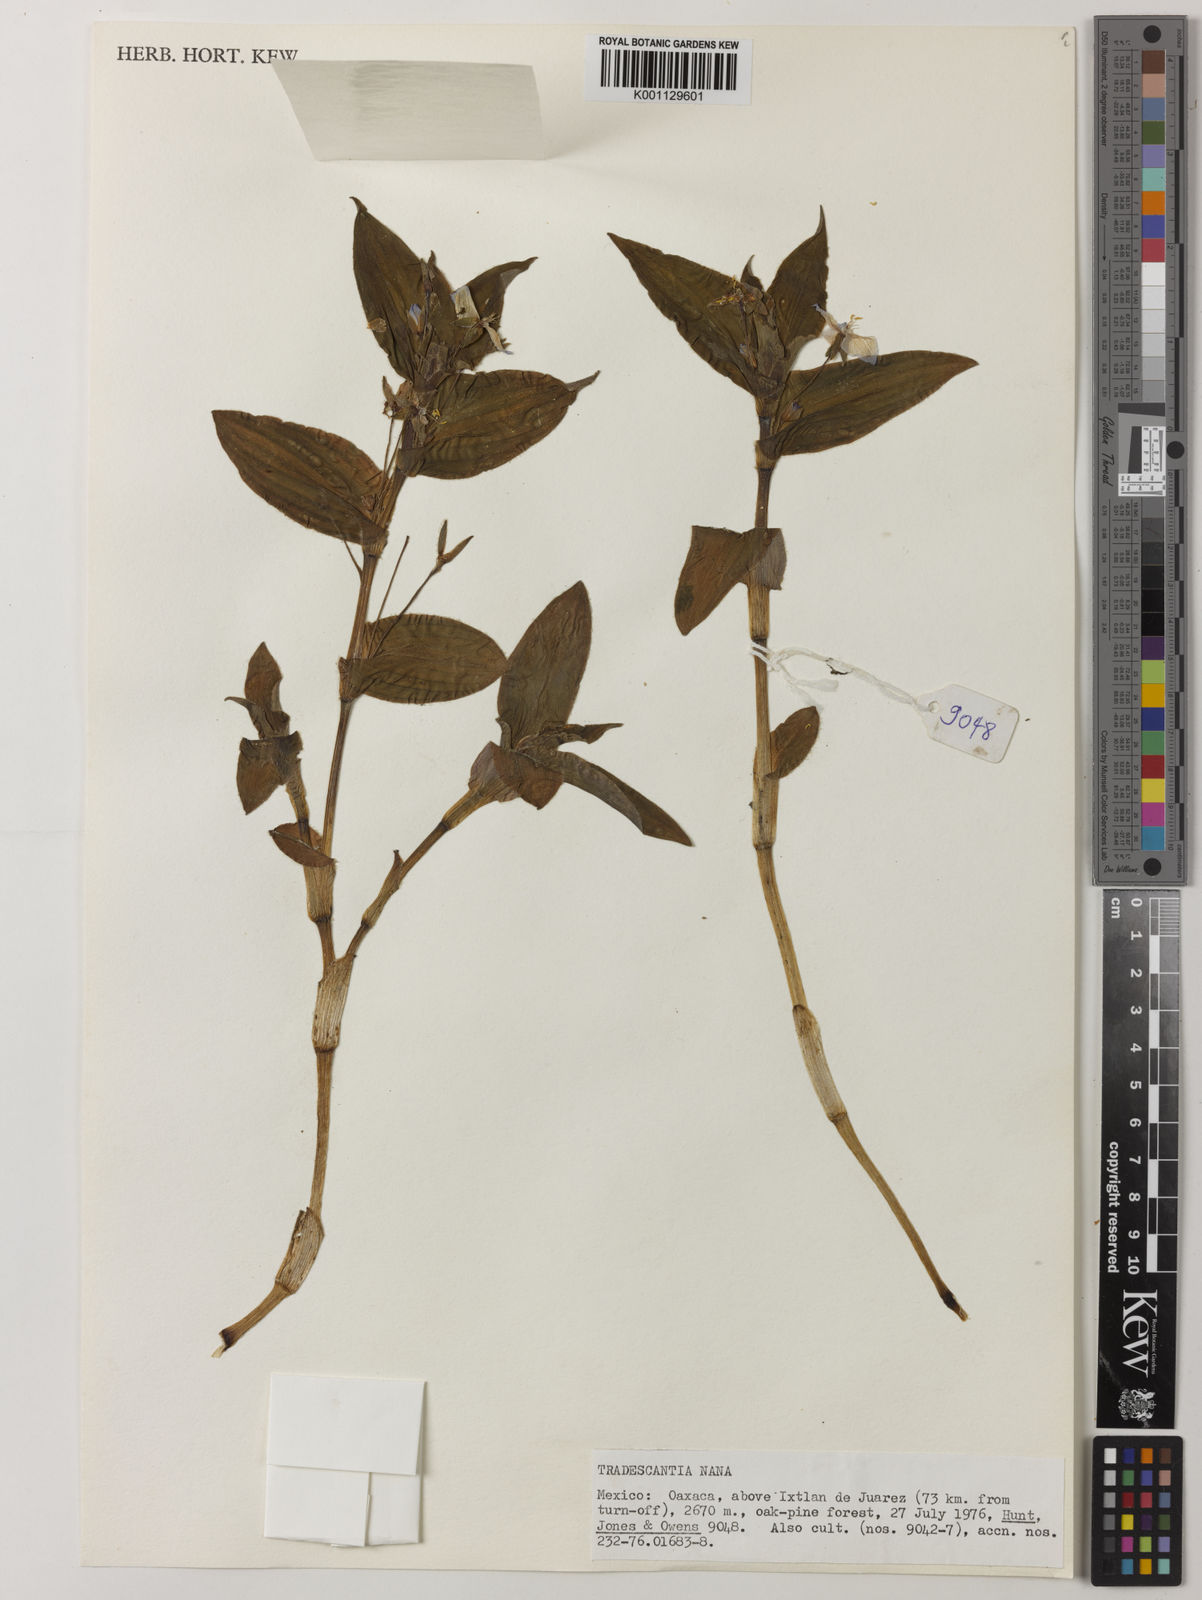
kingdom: Plantae
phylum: Tracheophyta
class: Liliopsida
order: Commelinales
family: Commelinaceae
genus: Matudanthus
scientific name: Matudanthus nanus
